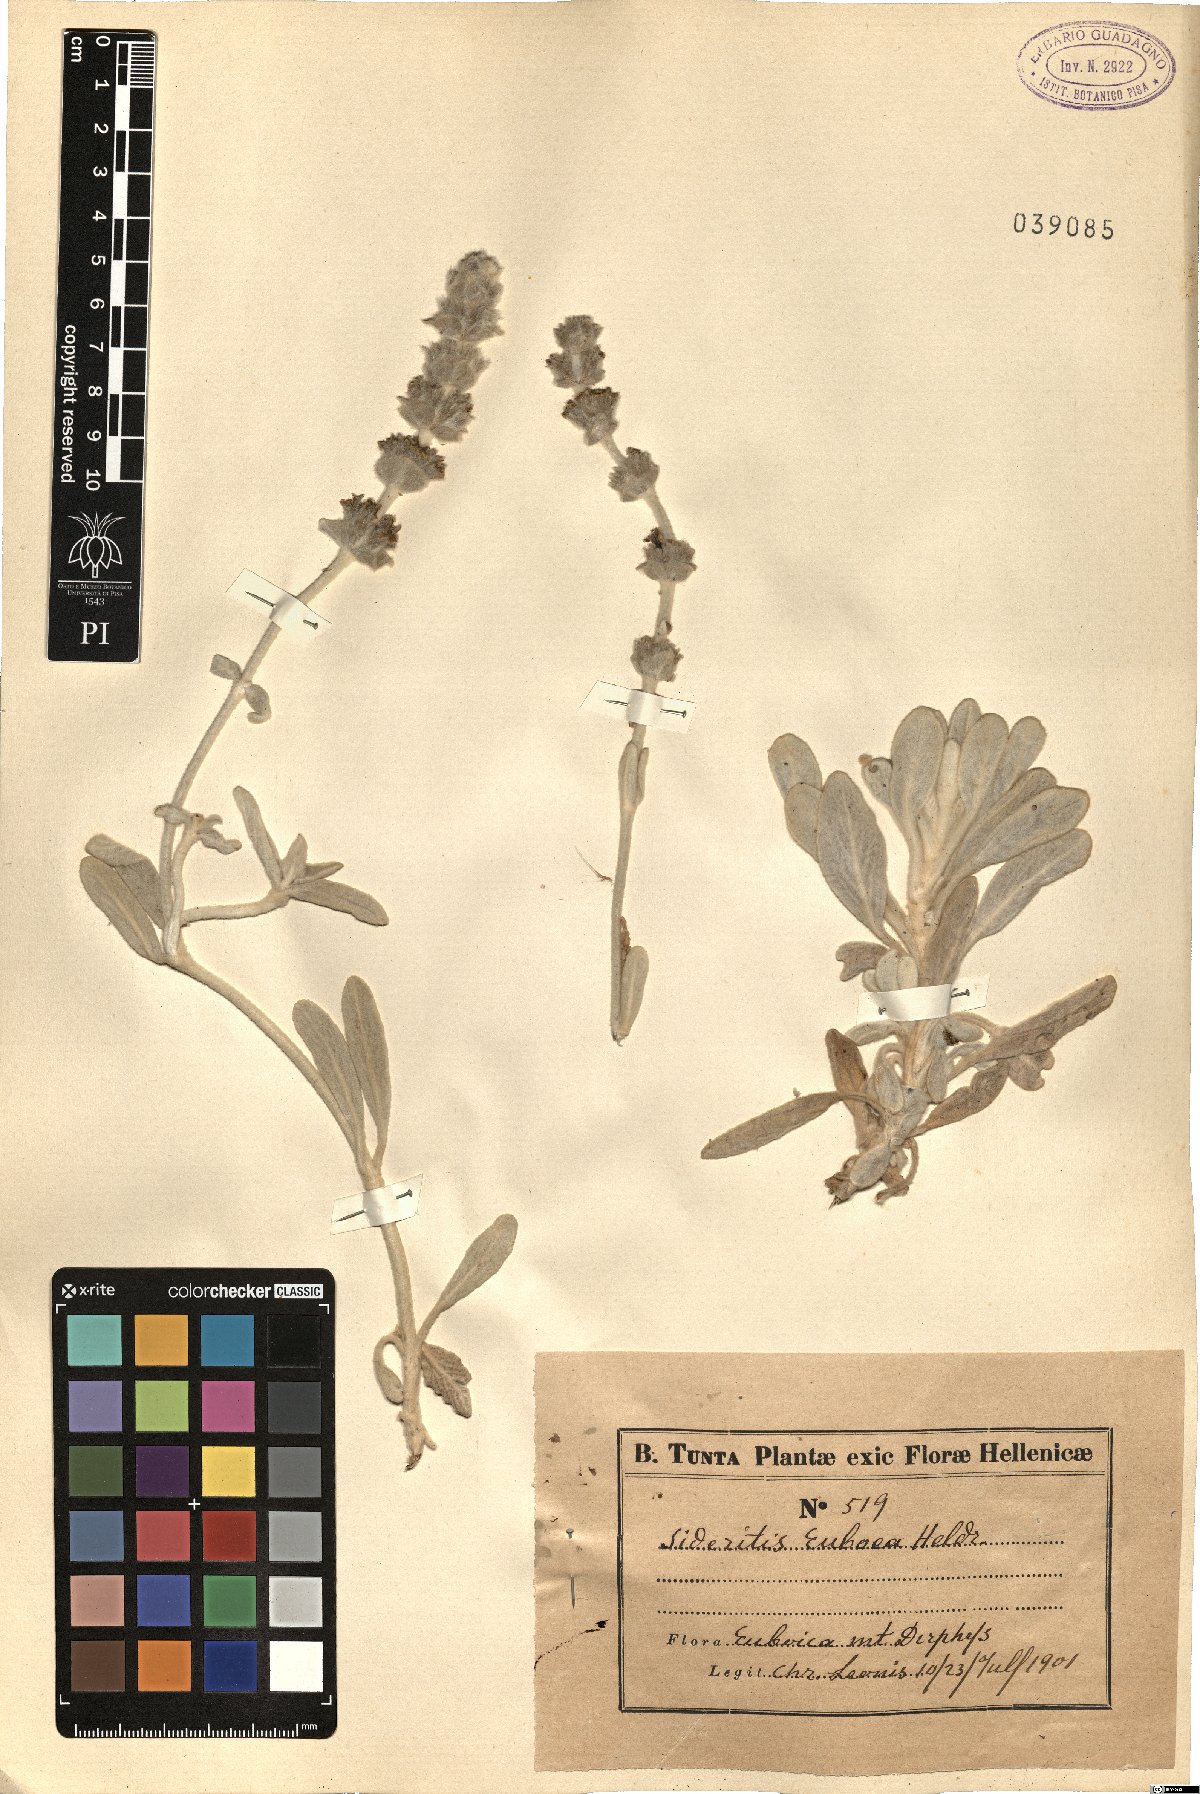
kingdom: Plantae
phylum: Tracheophyta
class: Magnoliopsida
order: Lamiales
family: Lamiaceae
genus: Sideritis
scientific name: Sideritis euboea
